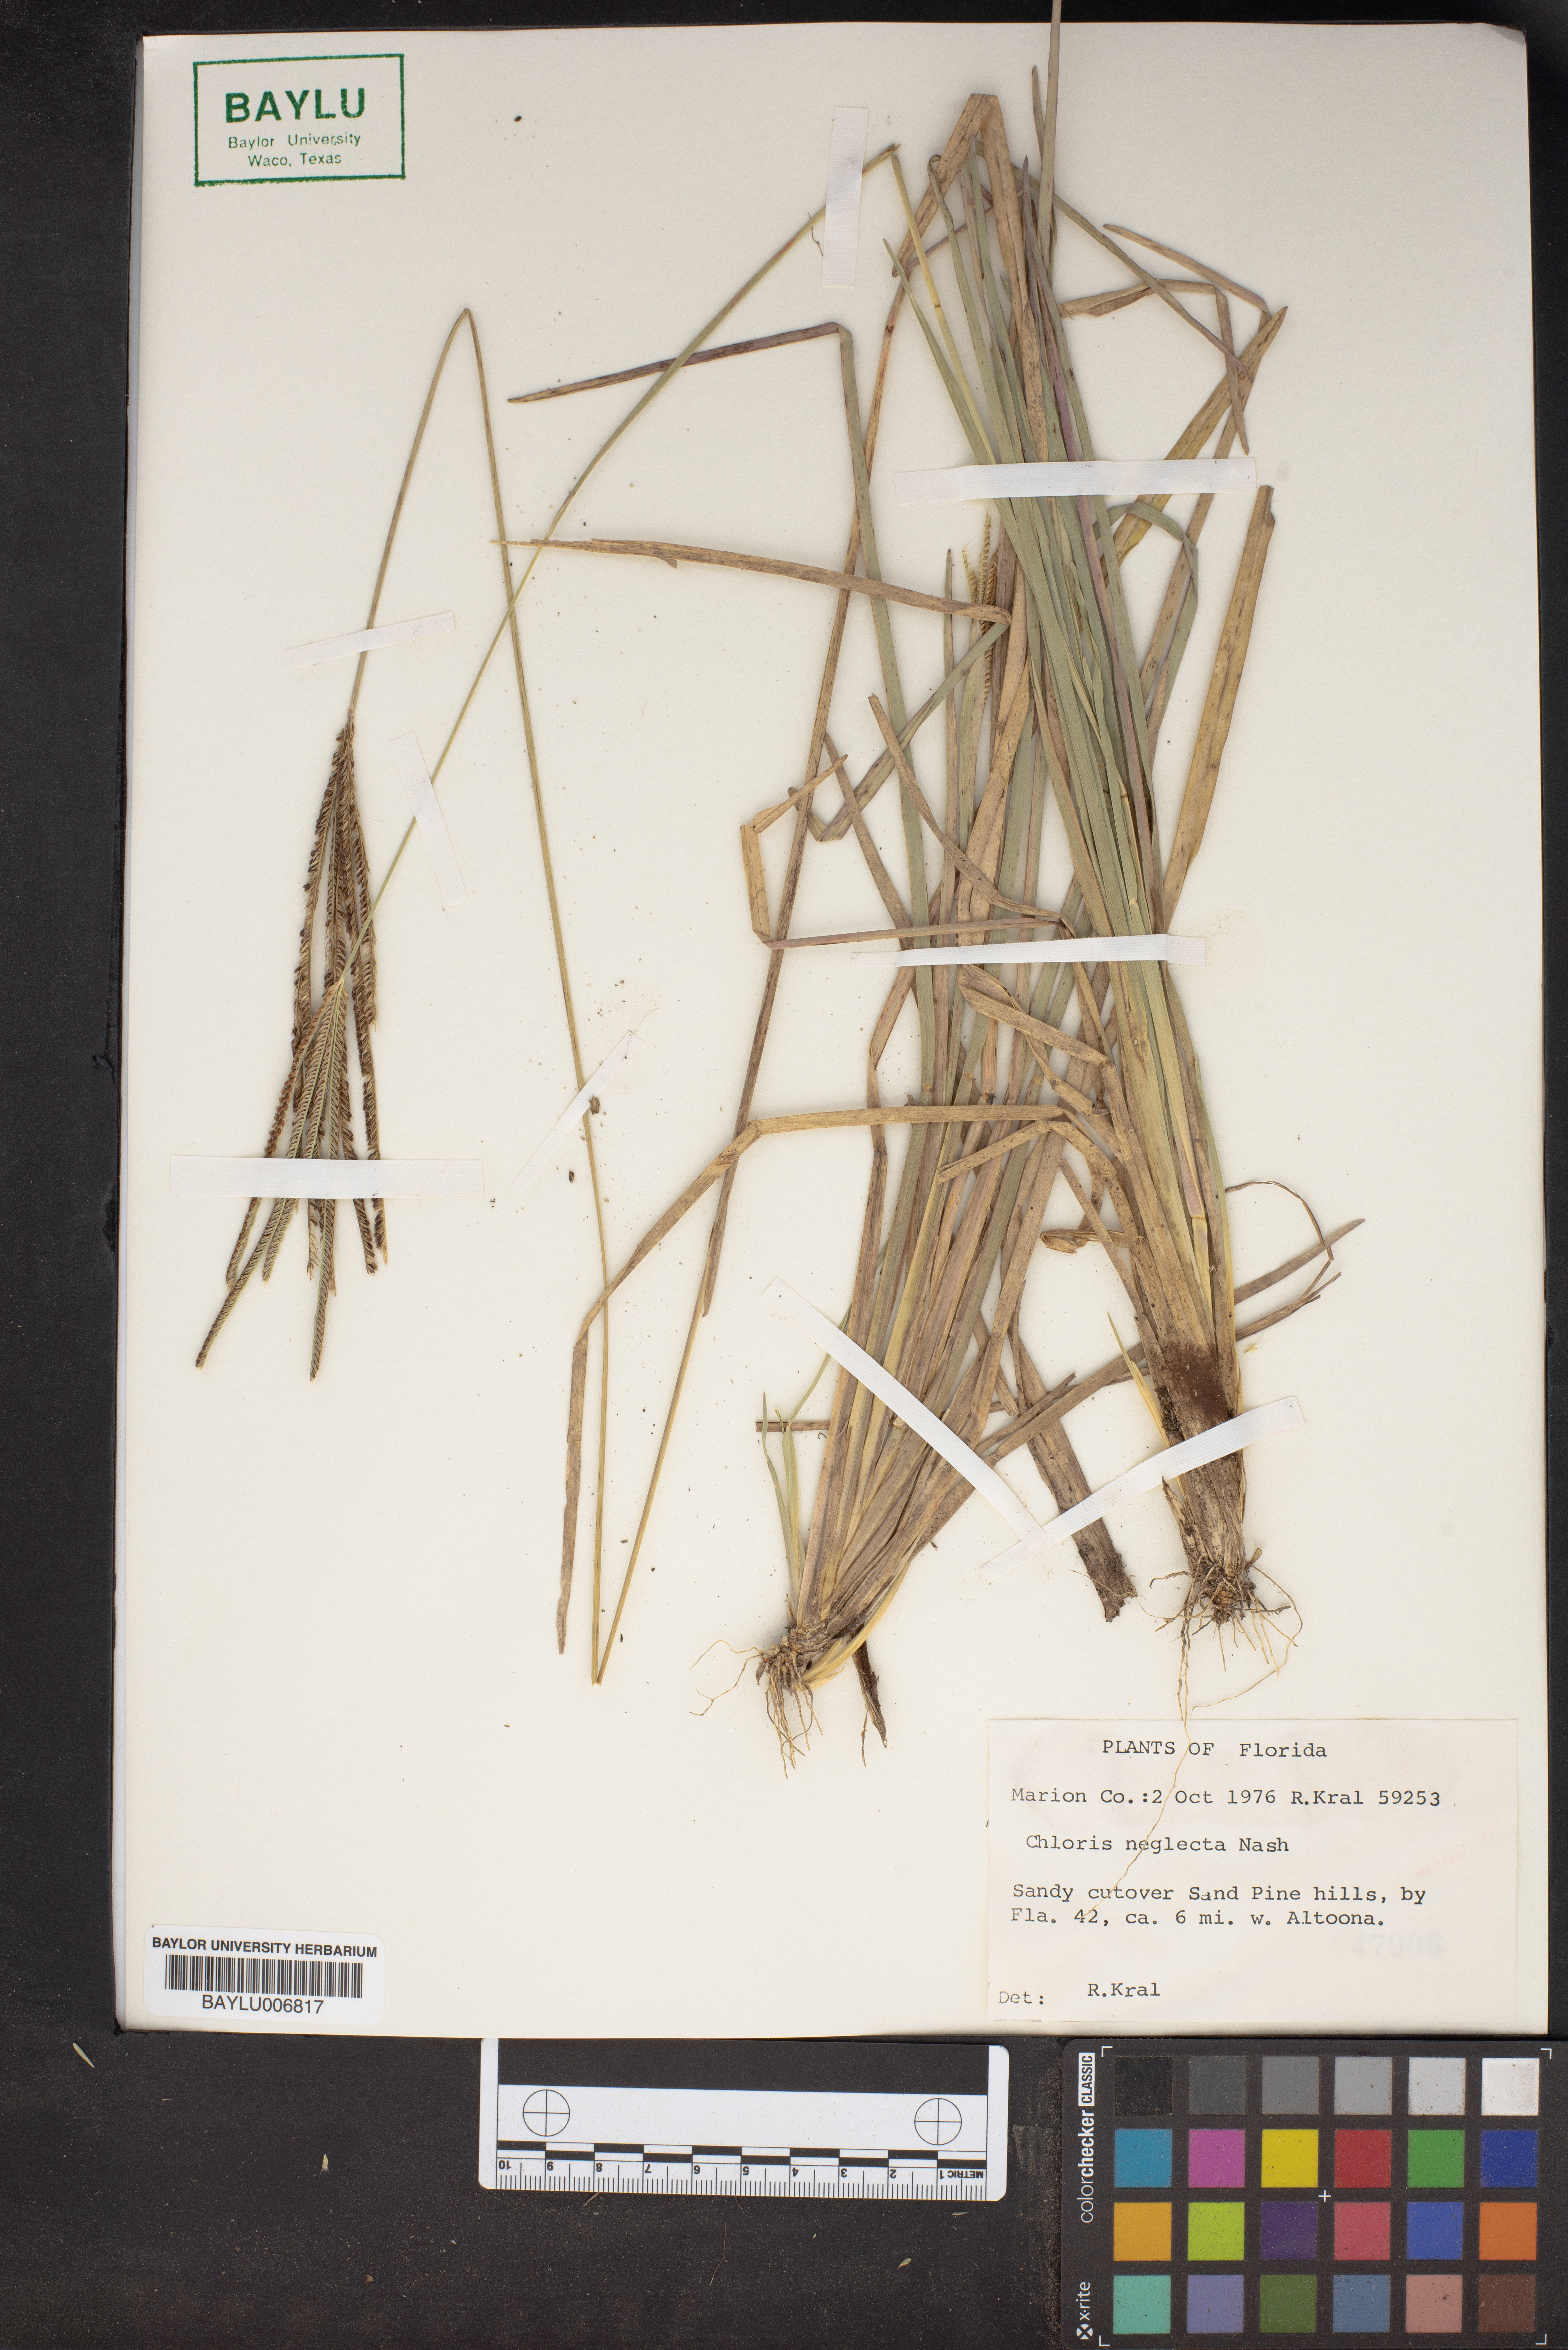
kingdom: Plantae
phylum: Tracheophyta
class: Liliopsida
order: Poales
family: Poaceae
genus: Eustachys
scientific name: Eustachys neglecta
